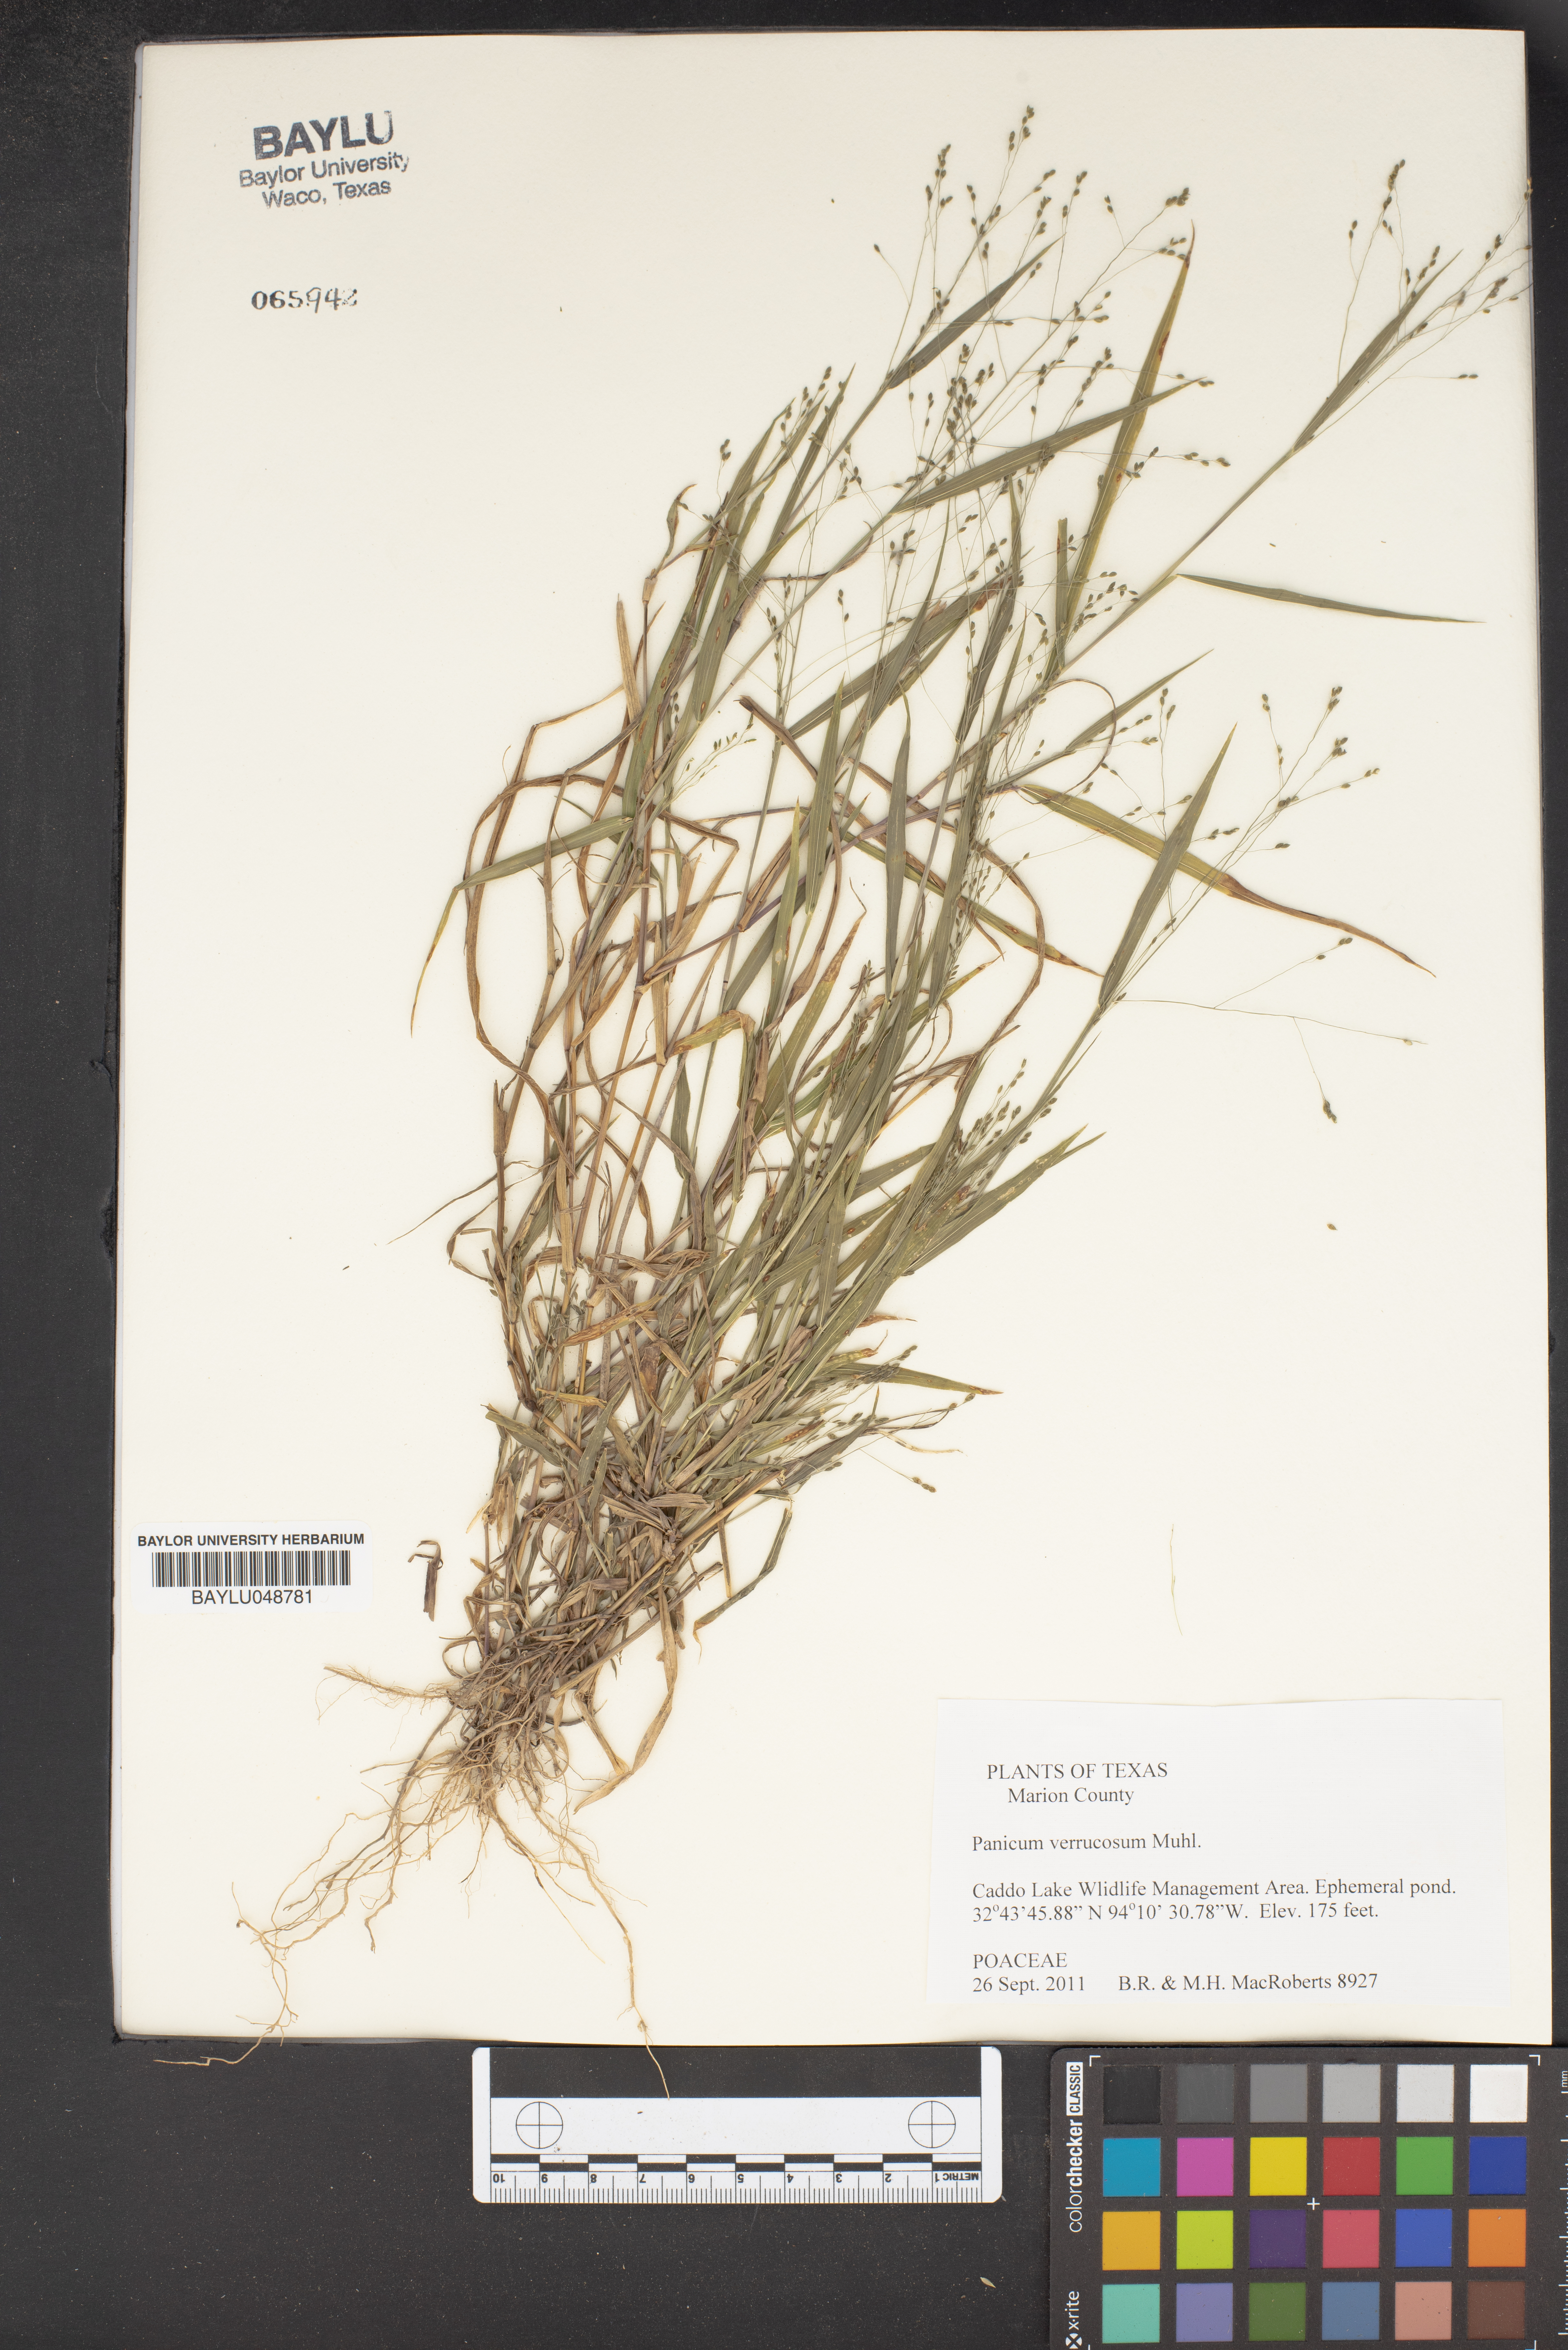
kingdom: Plantae
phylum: Tracheophyta
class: Liliopsida
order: Poales
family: Poaceae
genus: Kellochloa
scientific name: Kellochloa verrucosa
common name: Warty panic grass
